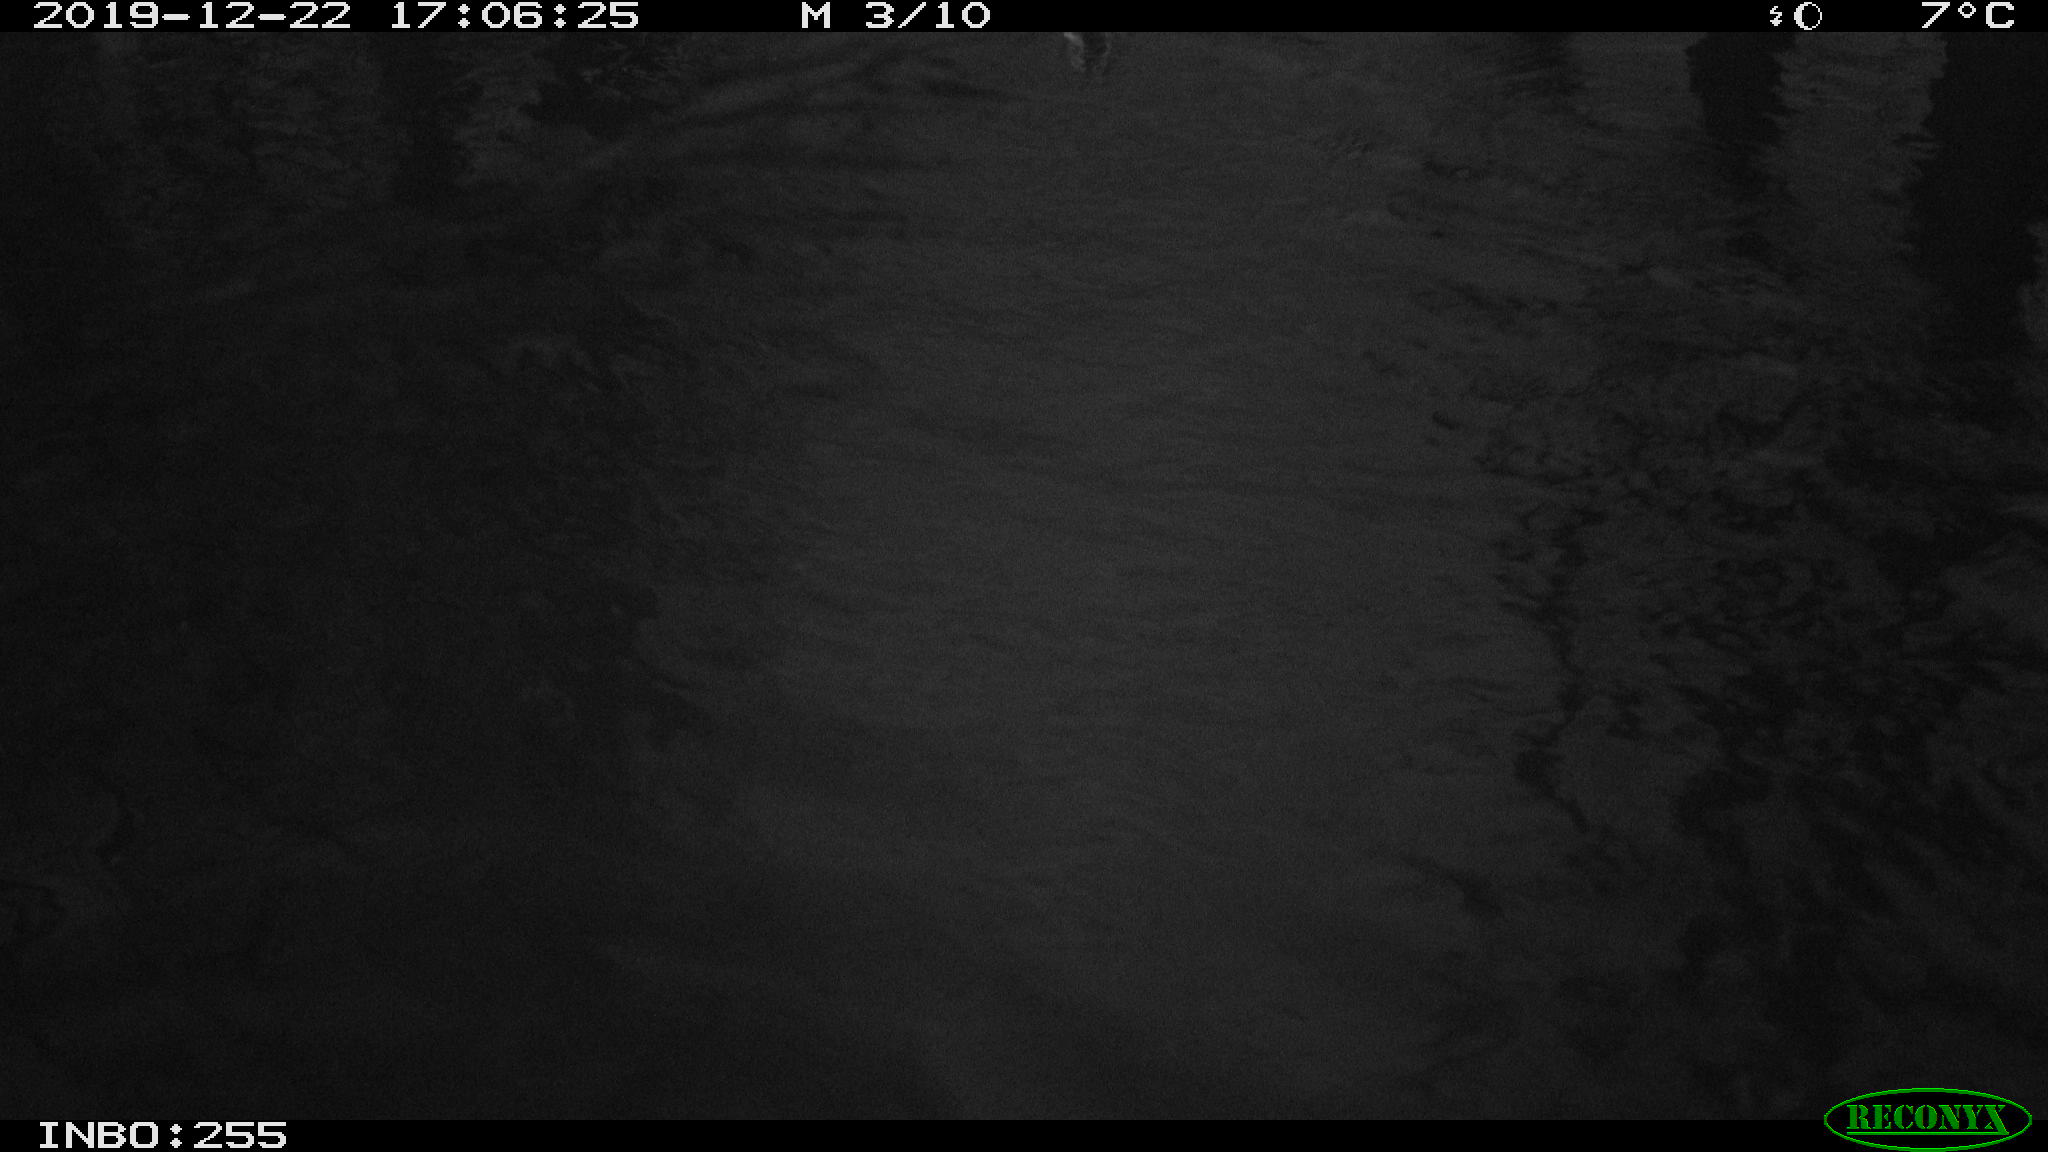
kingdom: Animalia
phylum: Chordata
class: Aves
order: Gruiformes
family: Rallidae
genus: Gallinula
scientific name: Gallinula chloropus
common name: Common moorhen
